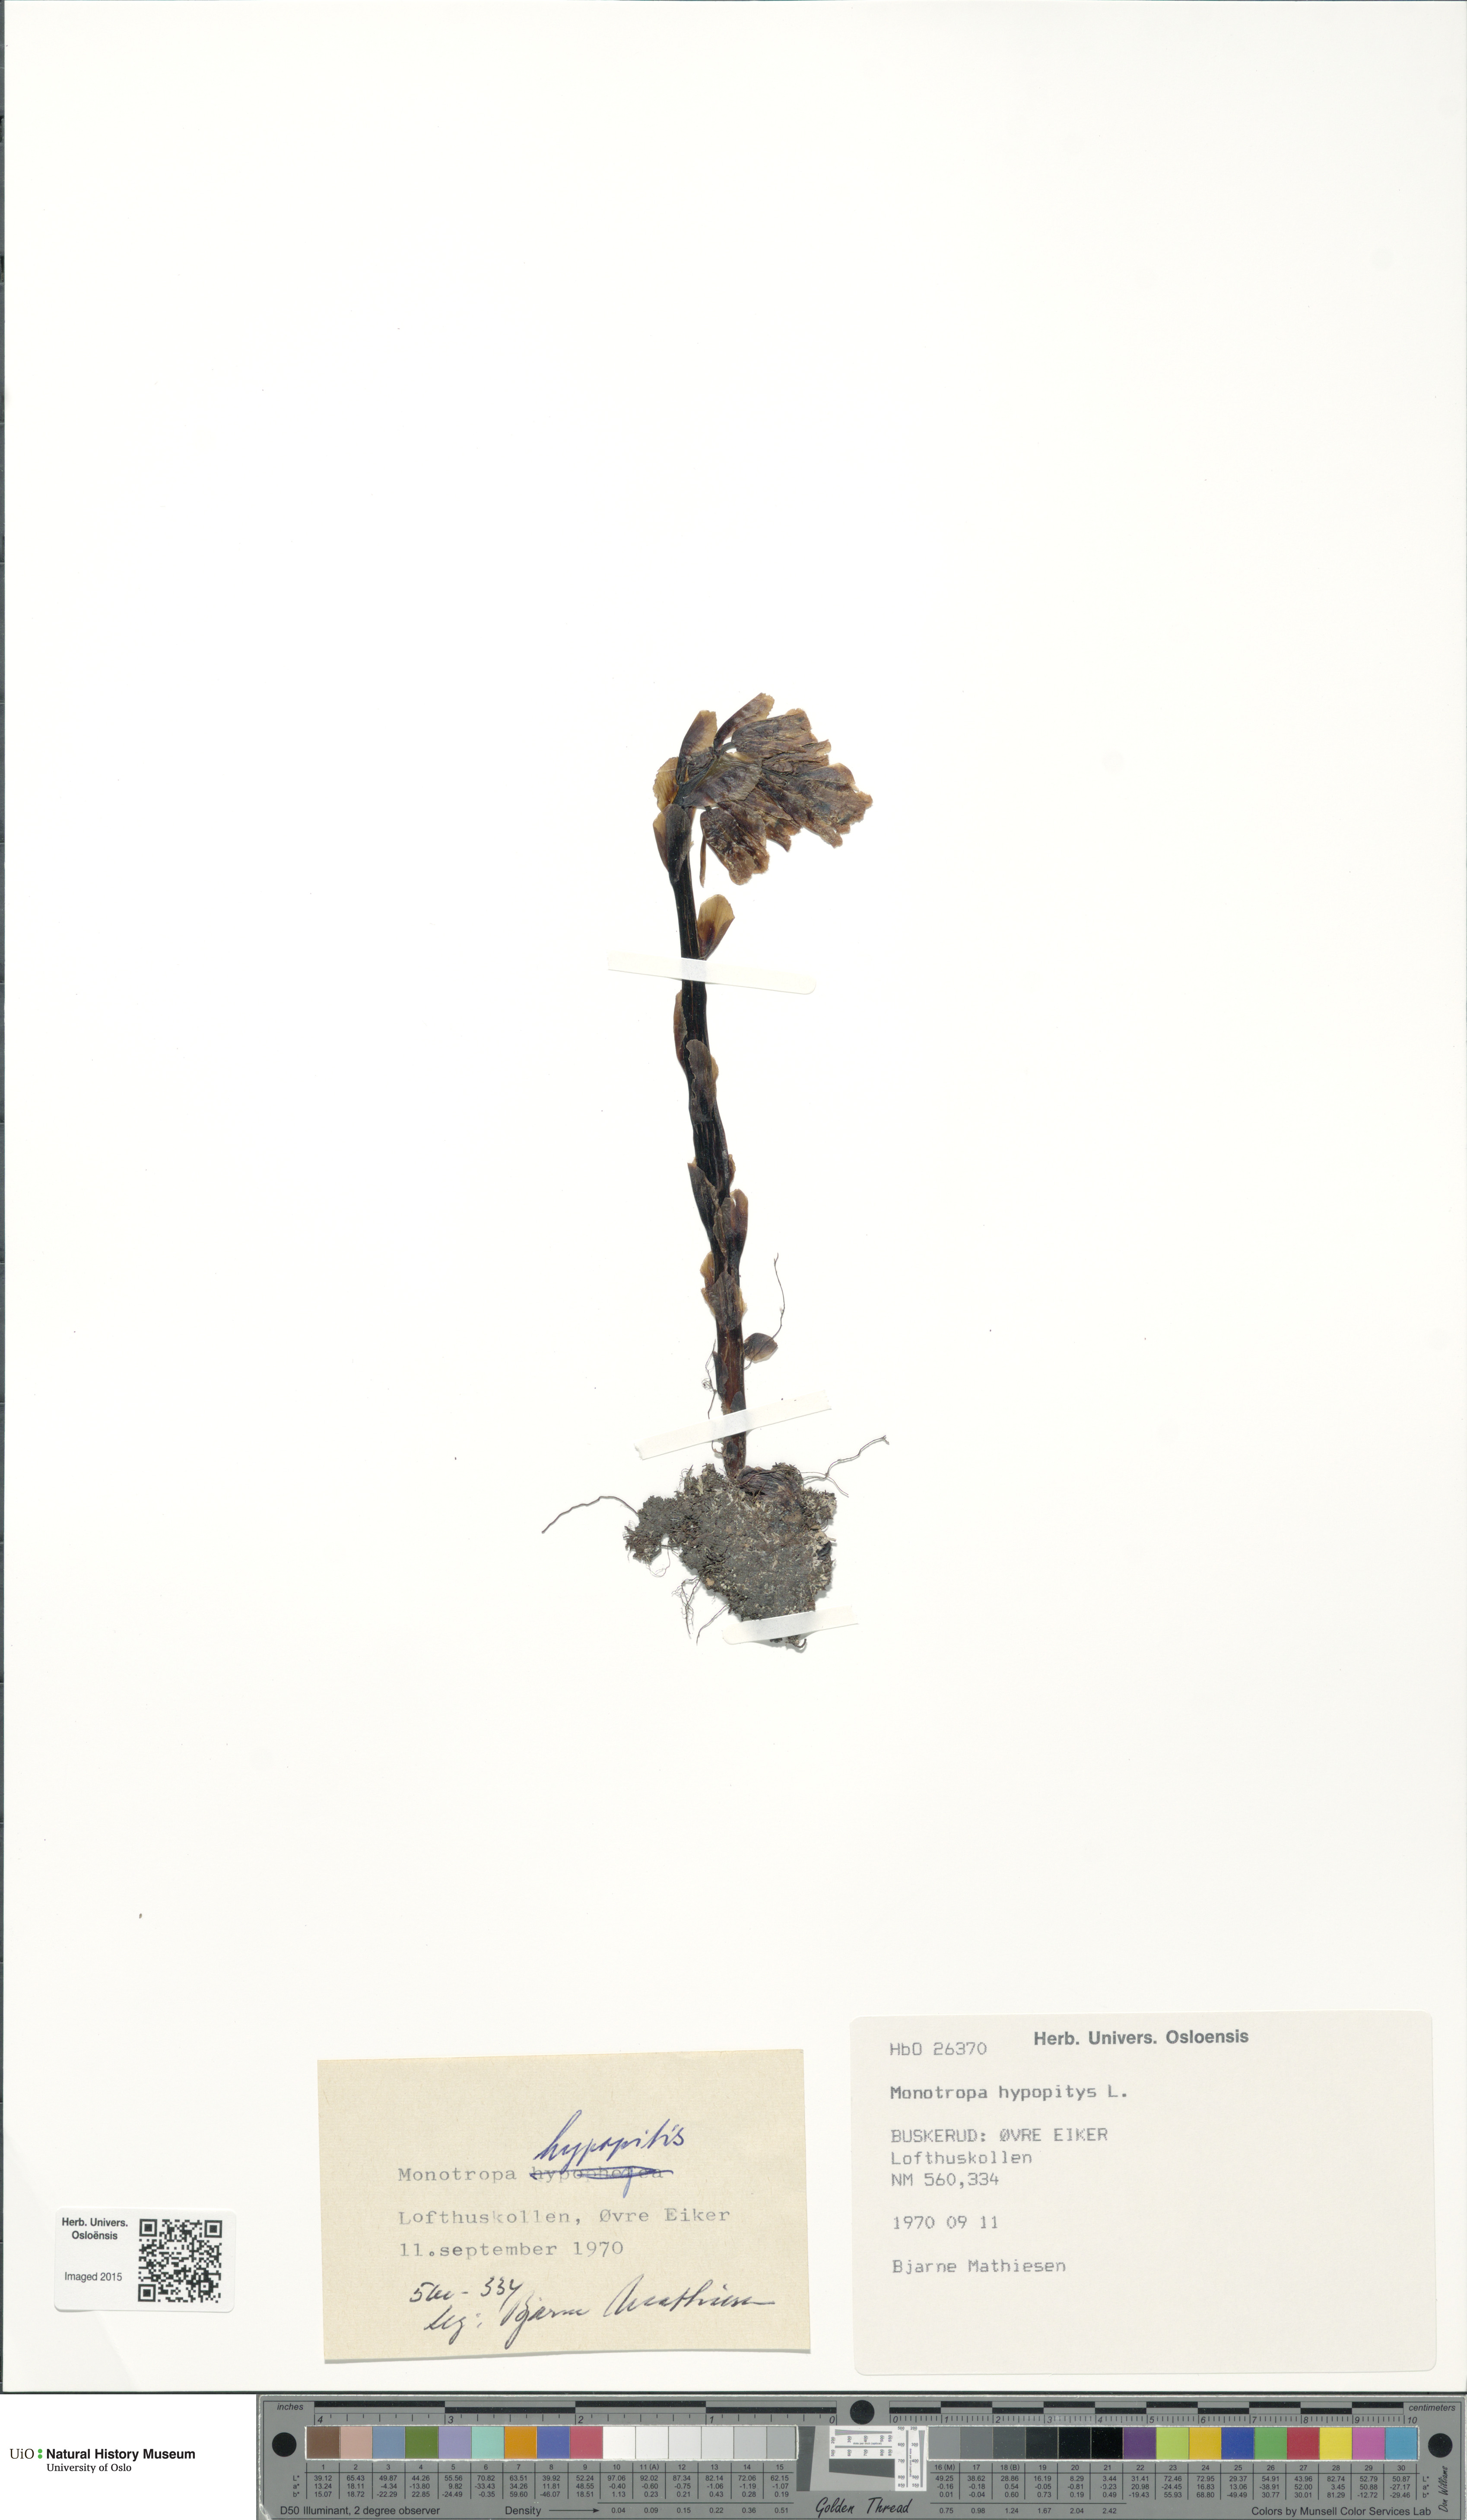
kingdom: Plantae
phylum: Tracheophyta
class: Magnoliopsida
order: Ericales
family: Ericaceae
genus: Hypopitys
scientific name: Hypopitys monotropa
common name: Yellow bird's-nest
